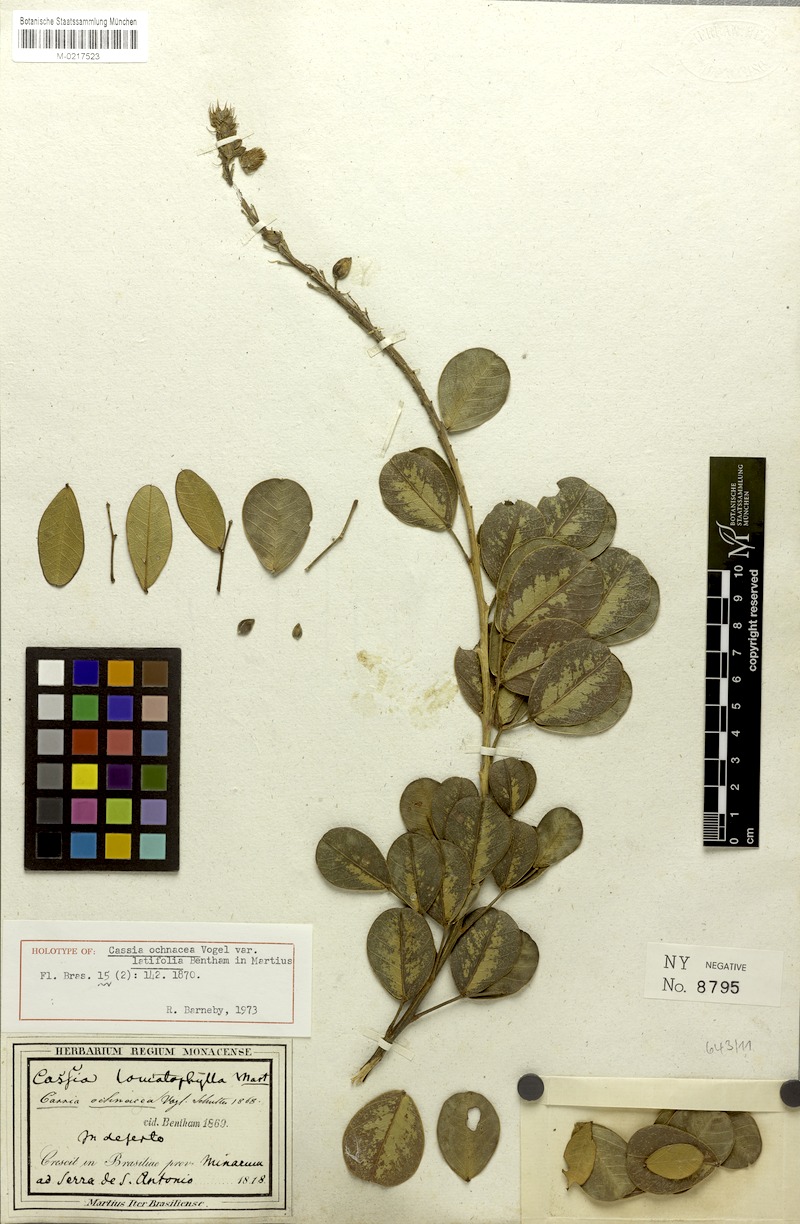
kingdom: Plantae
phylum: Tracheophyta
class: Magnoliopsida
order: Fabales
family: Fabaceae
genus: Chamaecrista
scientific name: Chamaecrista ochnacea
